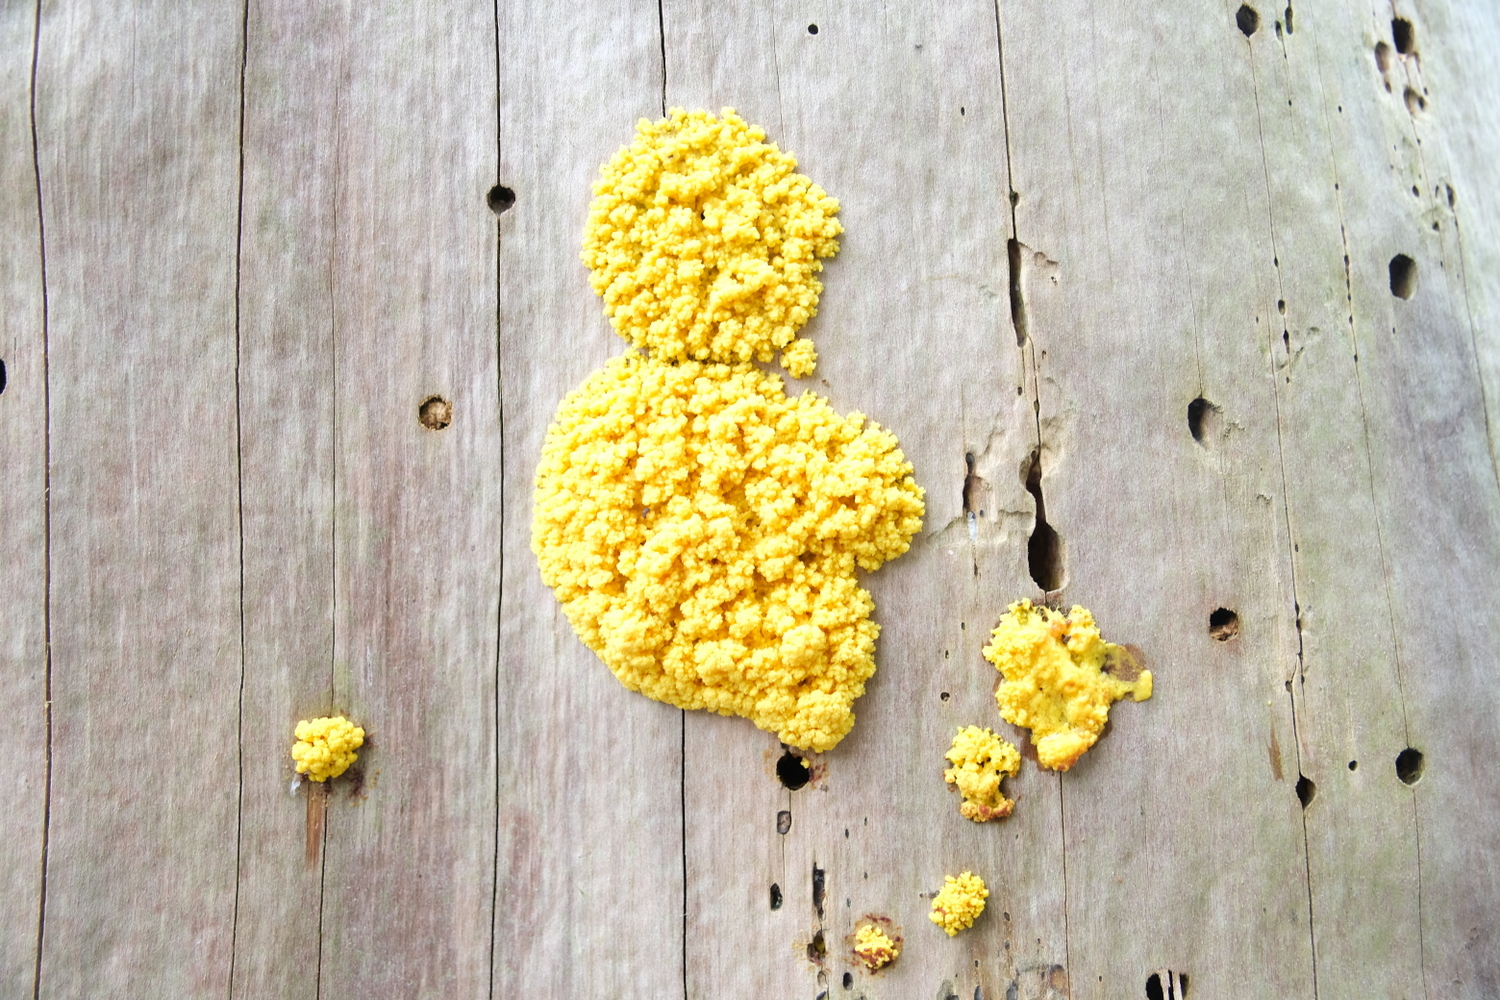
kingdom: Protozoa
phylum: Mycetozoa
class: Myxomycetes
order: Physarales
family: Physaraceae
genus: Fuligo
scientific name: Fuligo septica
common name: gul troldsmør
